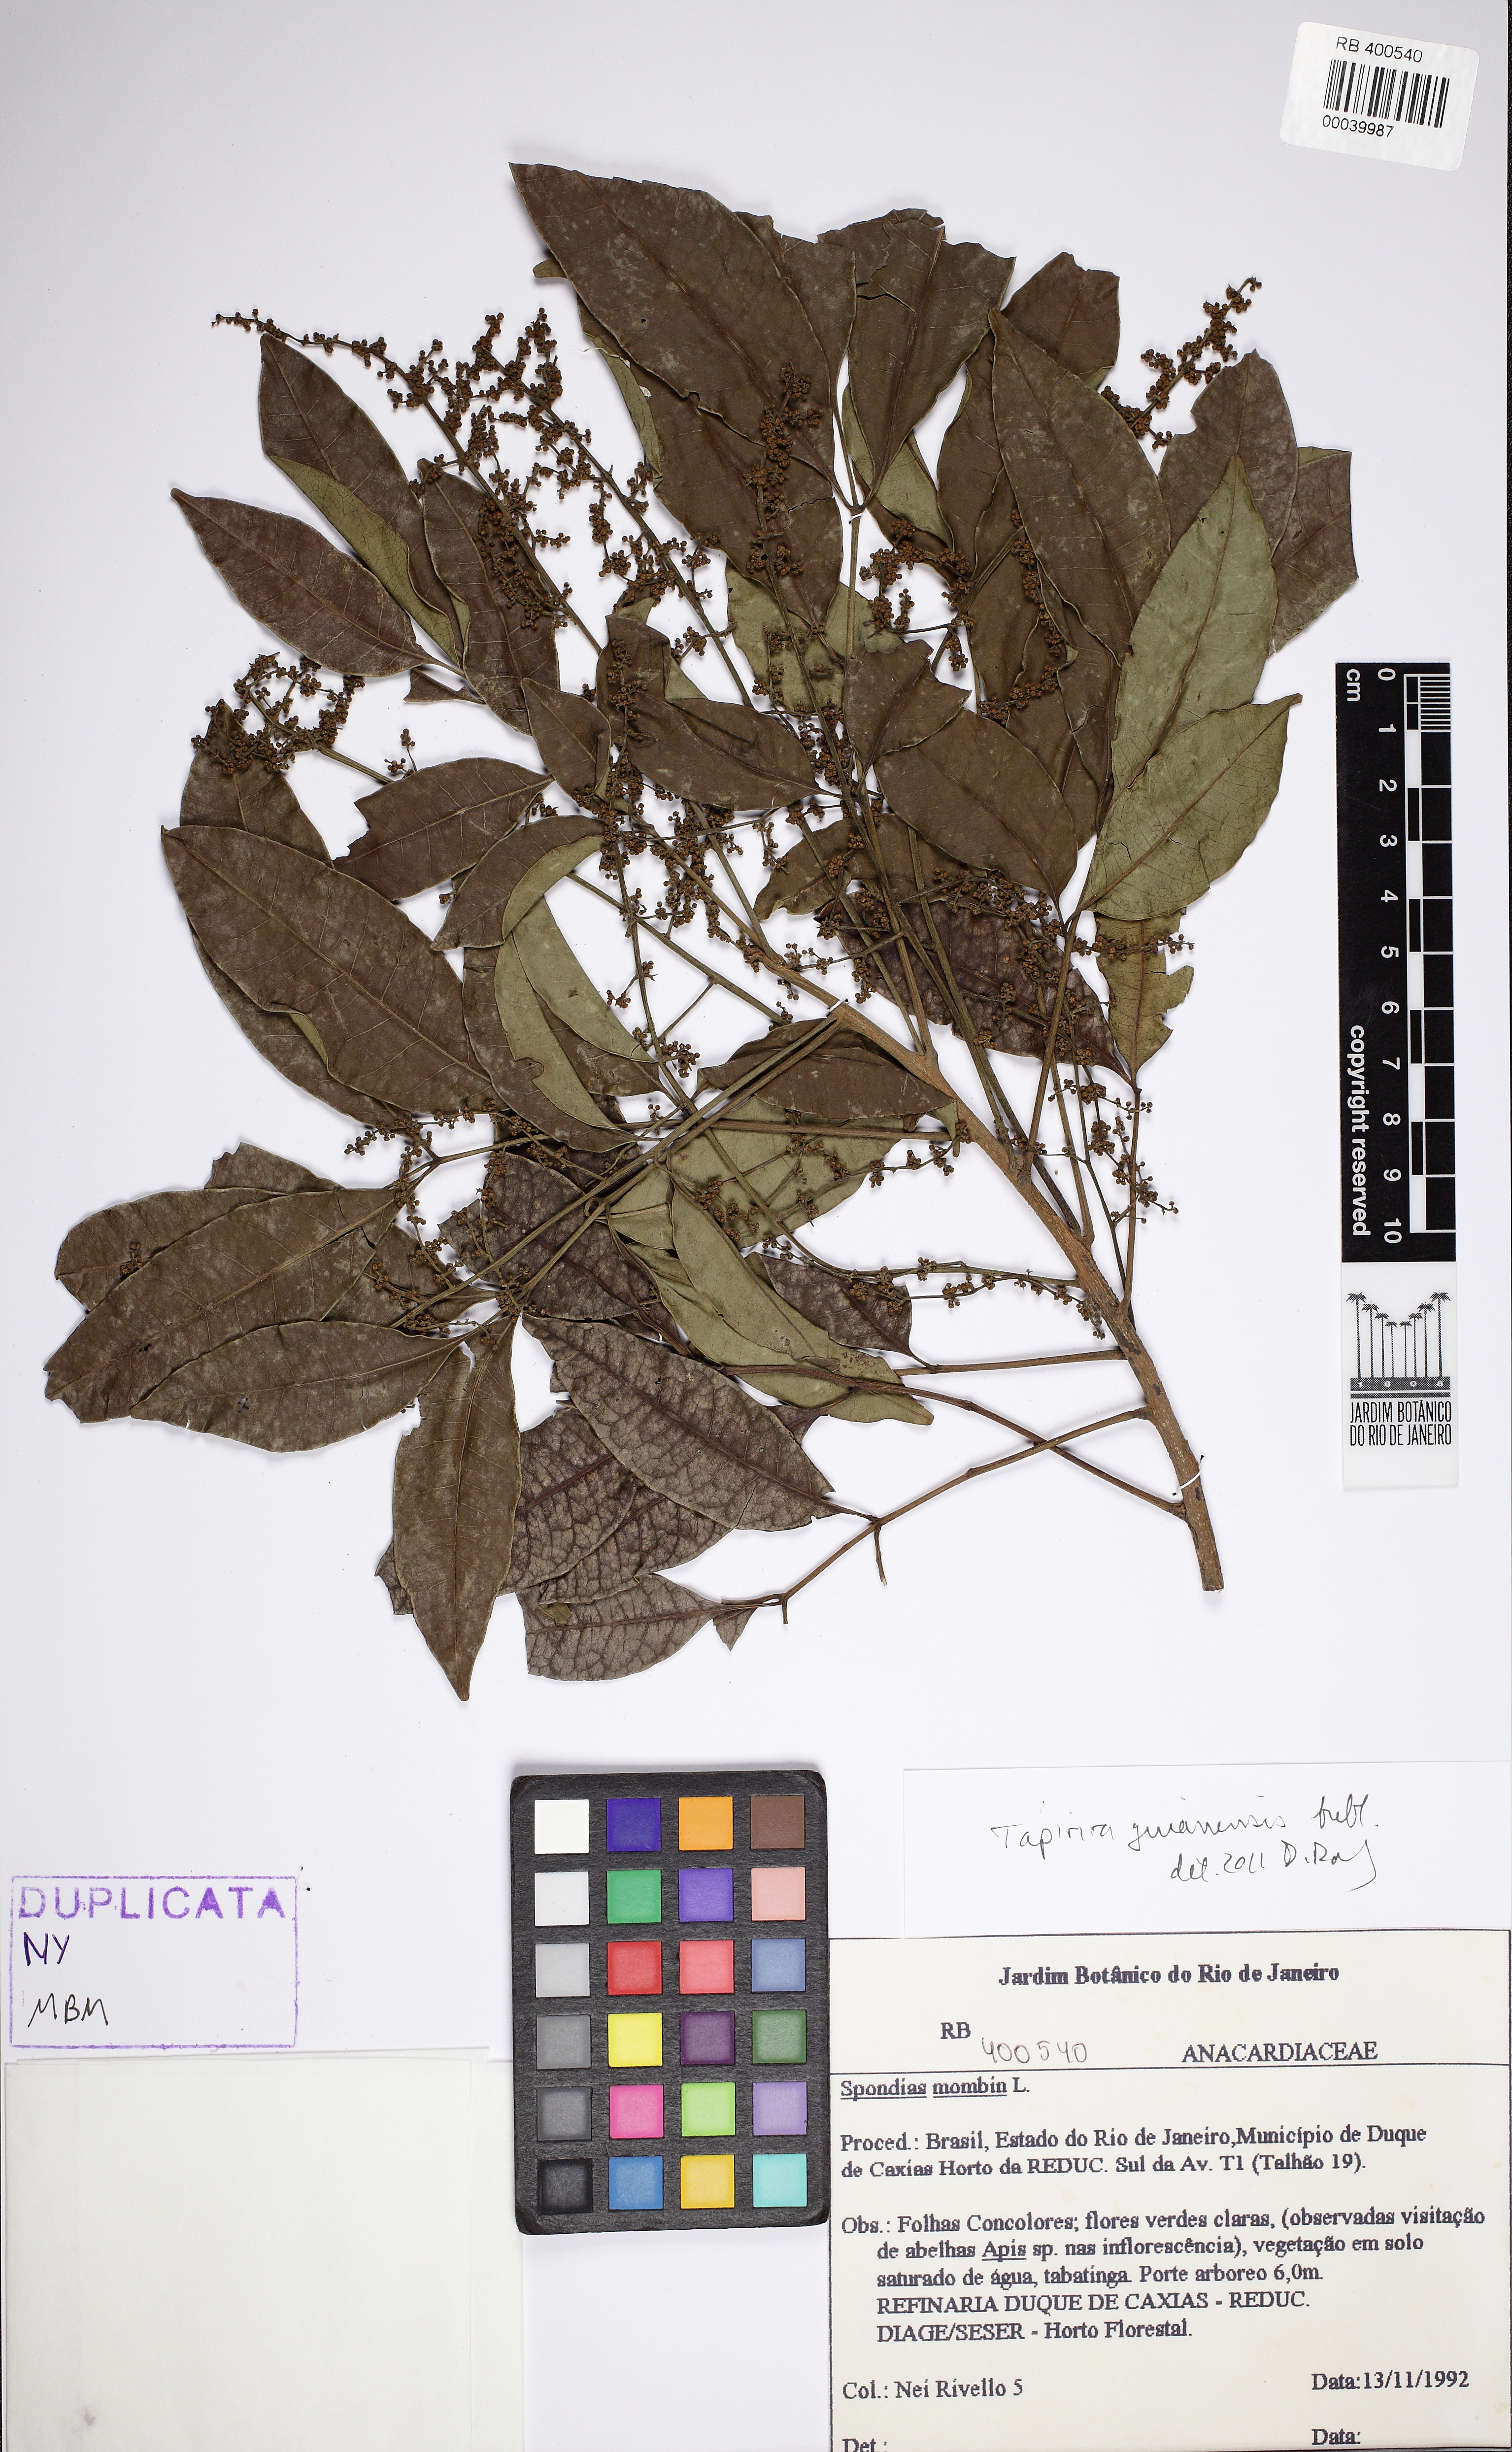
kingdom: Plantae
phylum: Tracheophyta
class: Magnoliopsida
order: Sapindales
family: Anacardiaceae
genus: Tapirira
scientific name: Tapirira guianensis
